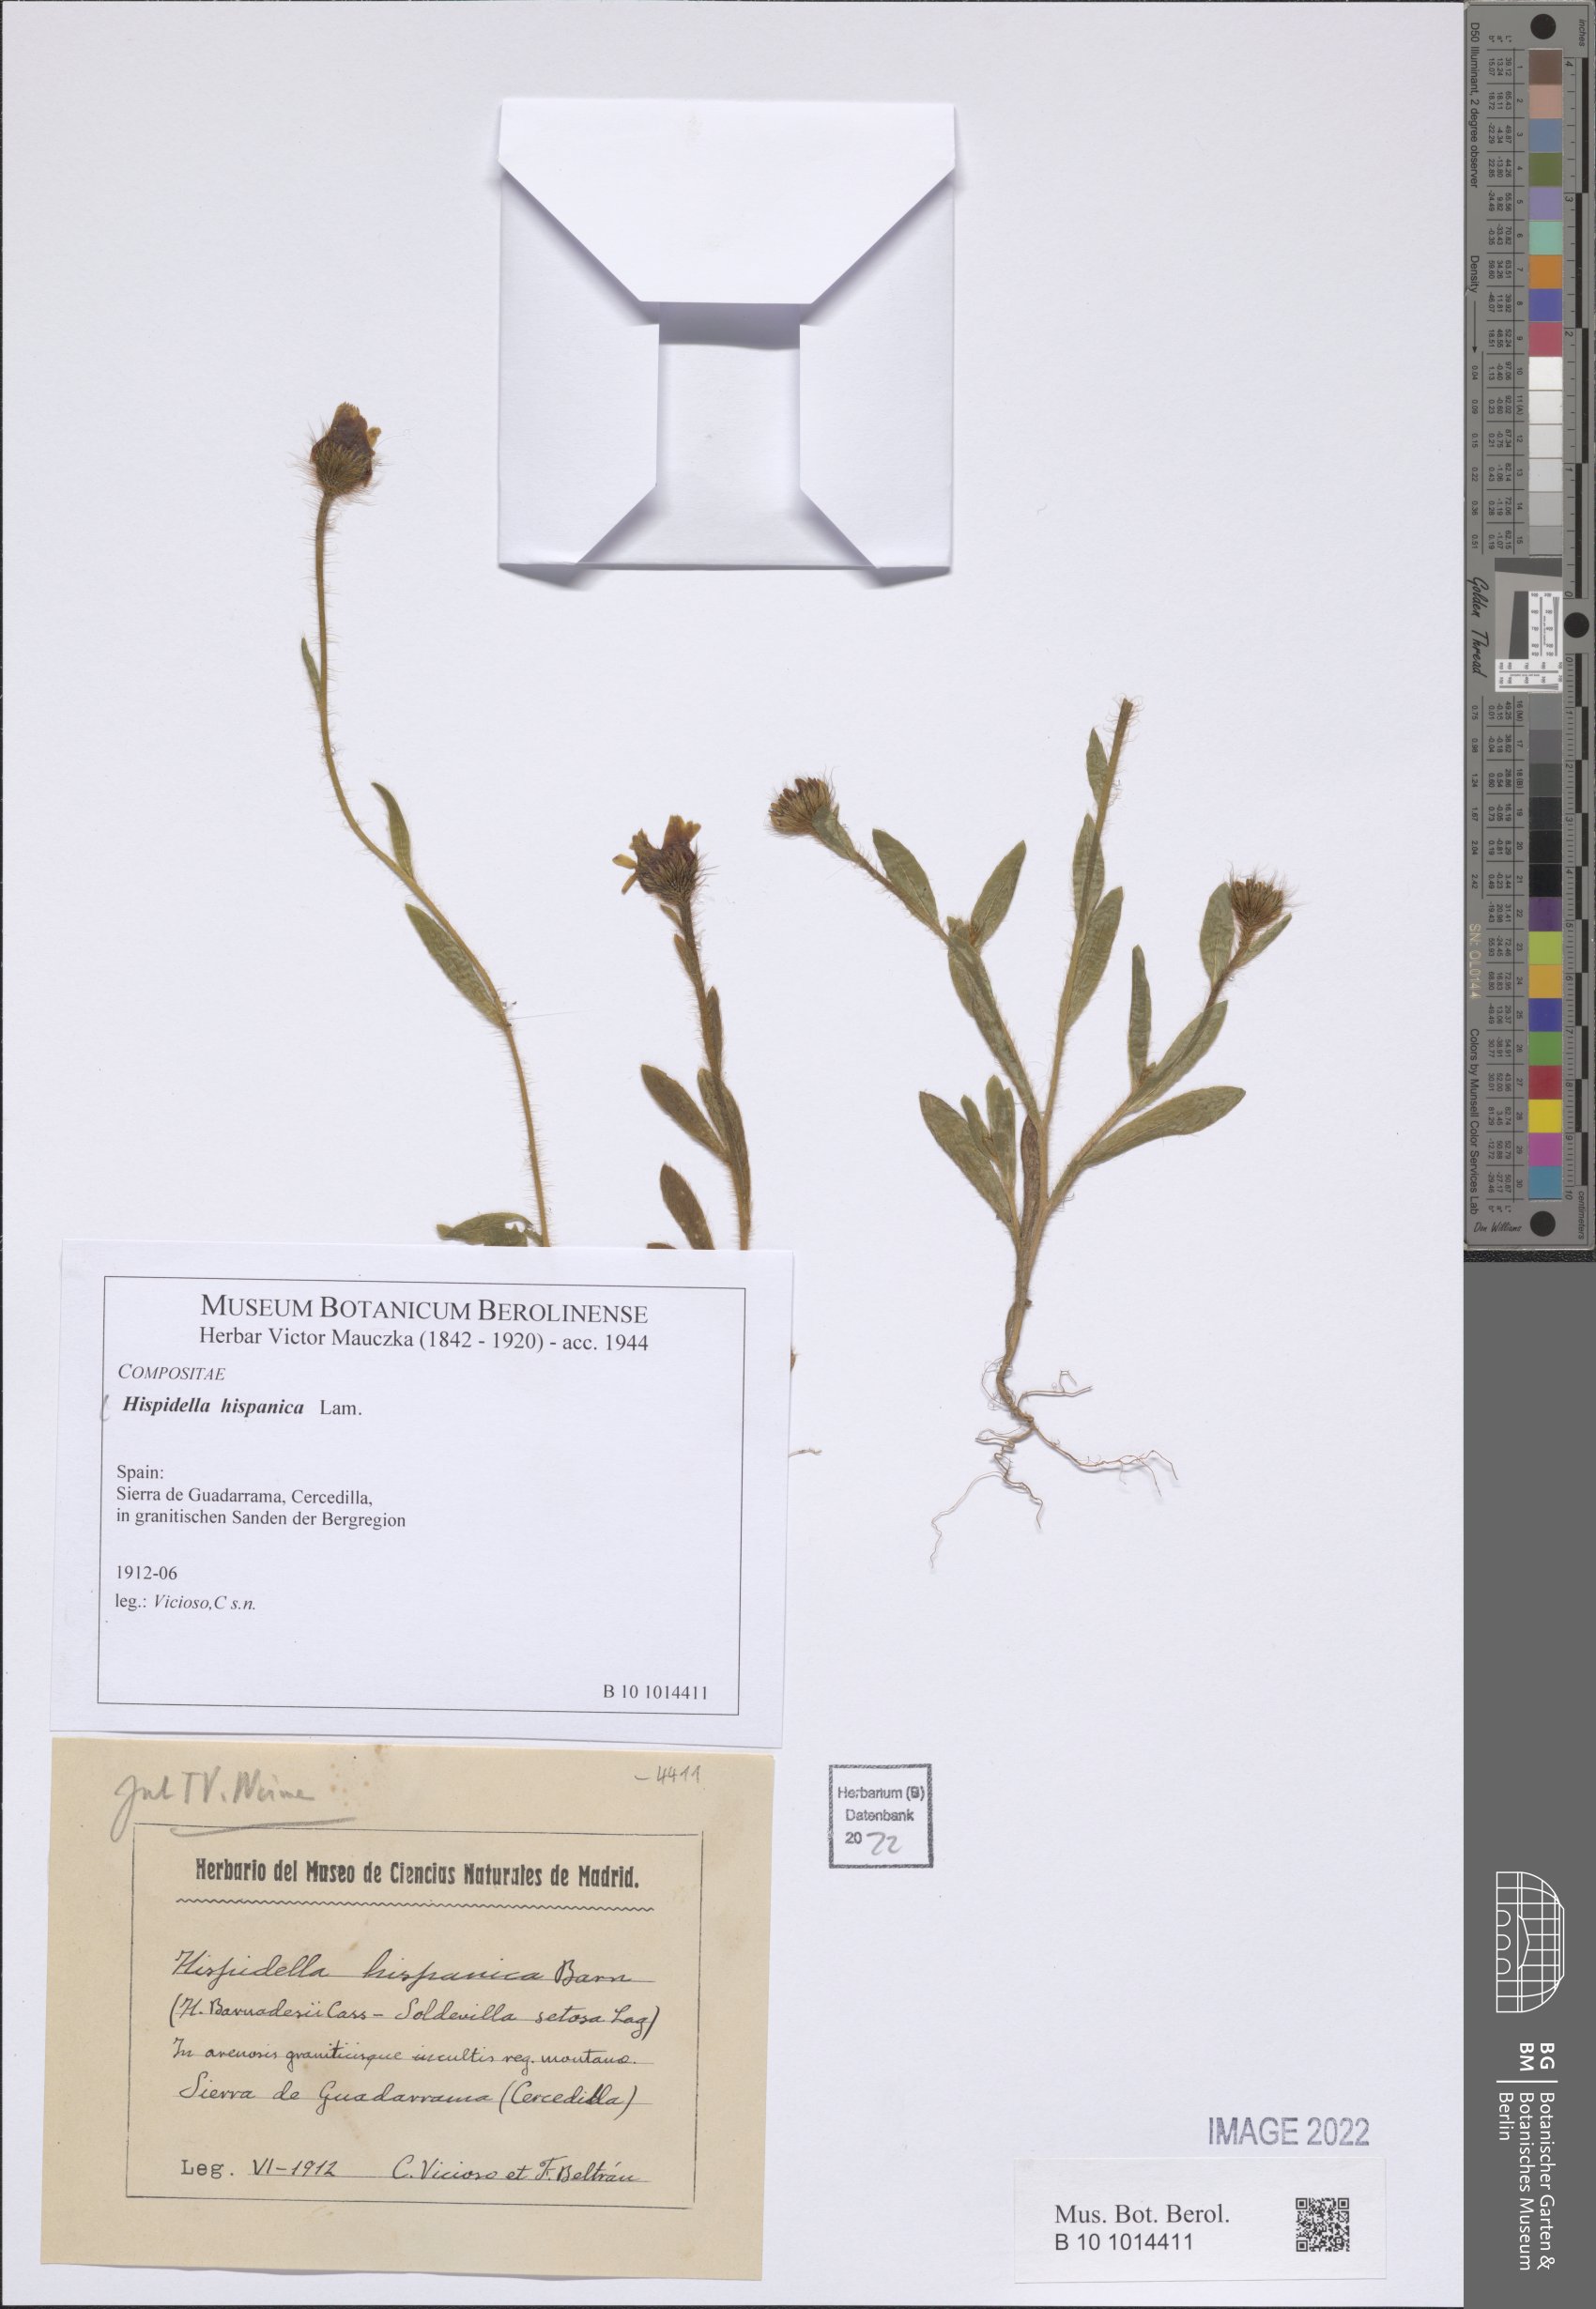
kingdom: Plantae
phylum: Tracheophyta
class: Magnoliopsida
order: Asterales
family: Asteraceae
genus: Hispidella
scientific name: Hispidella hispanica
